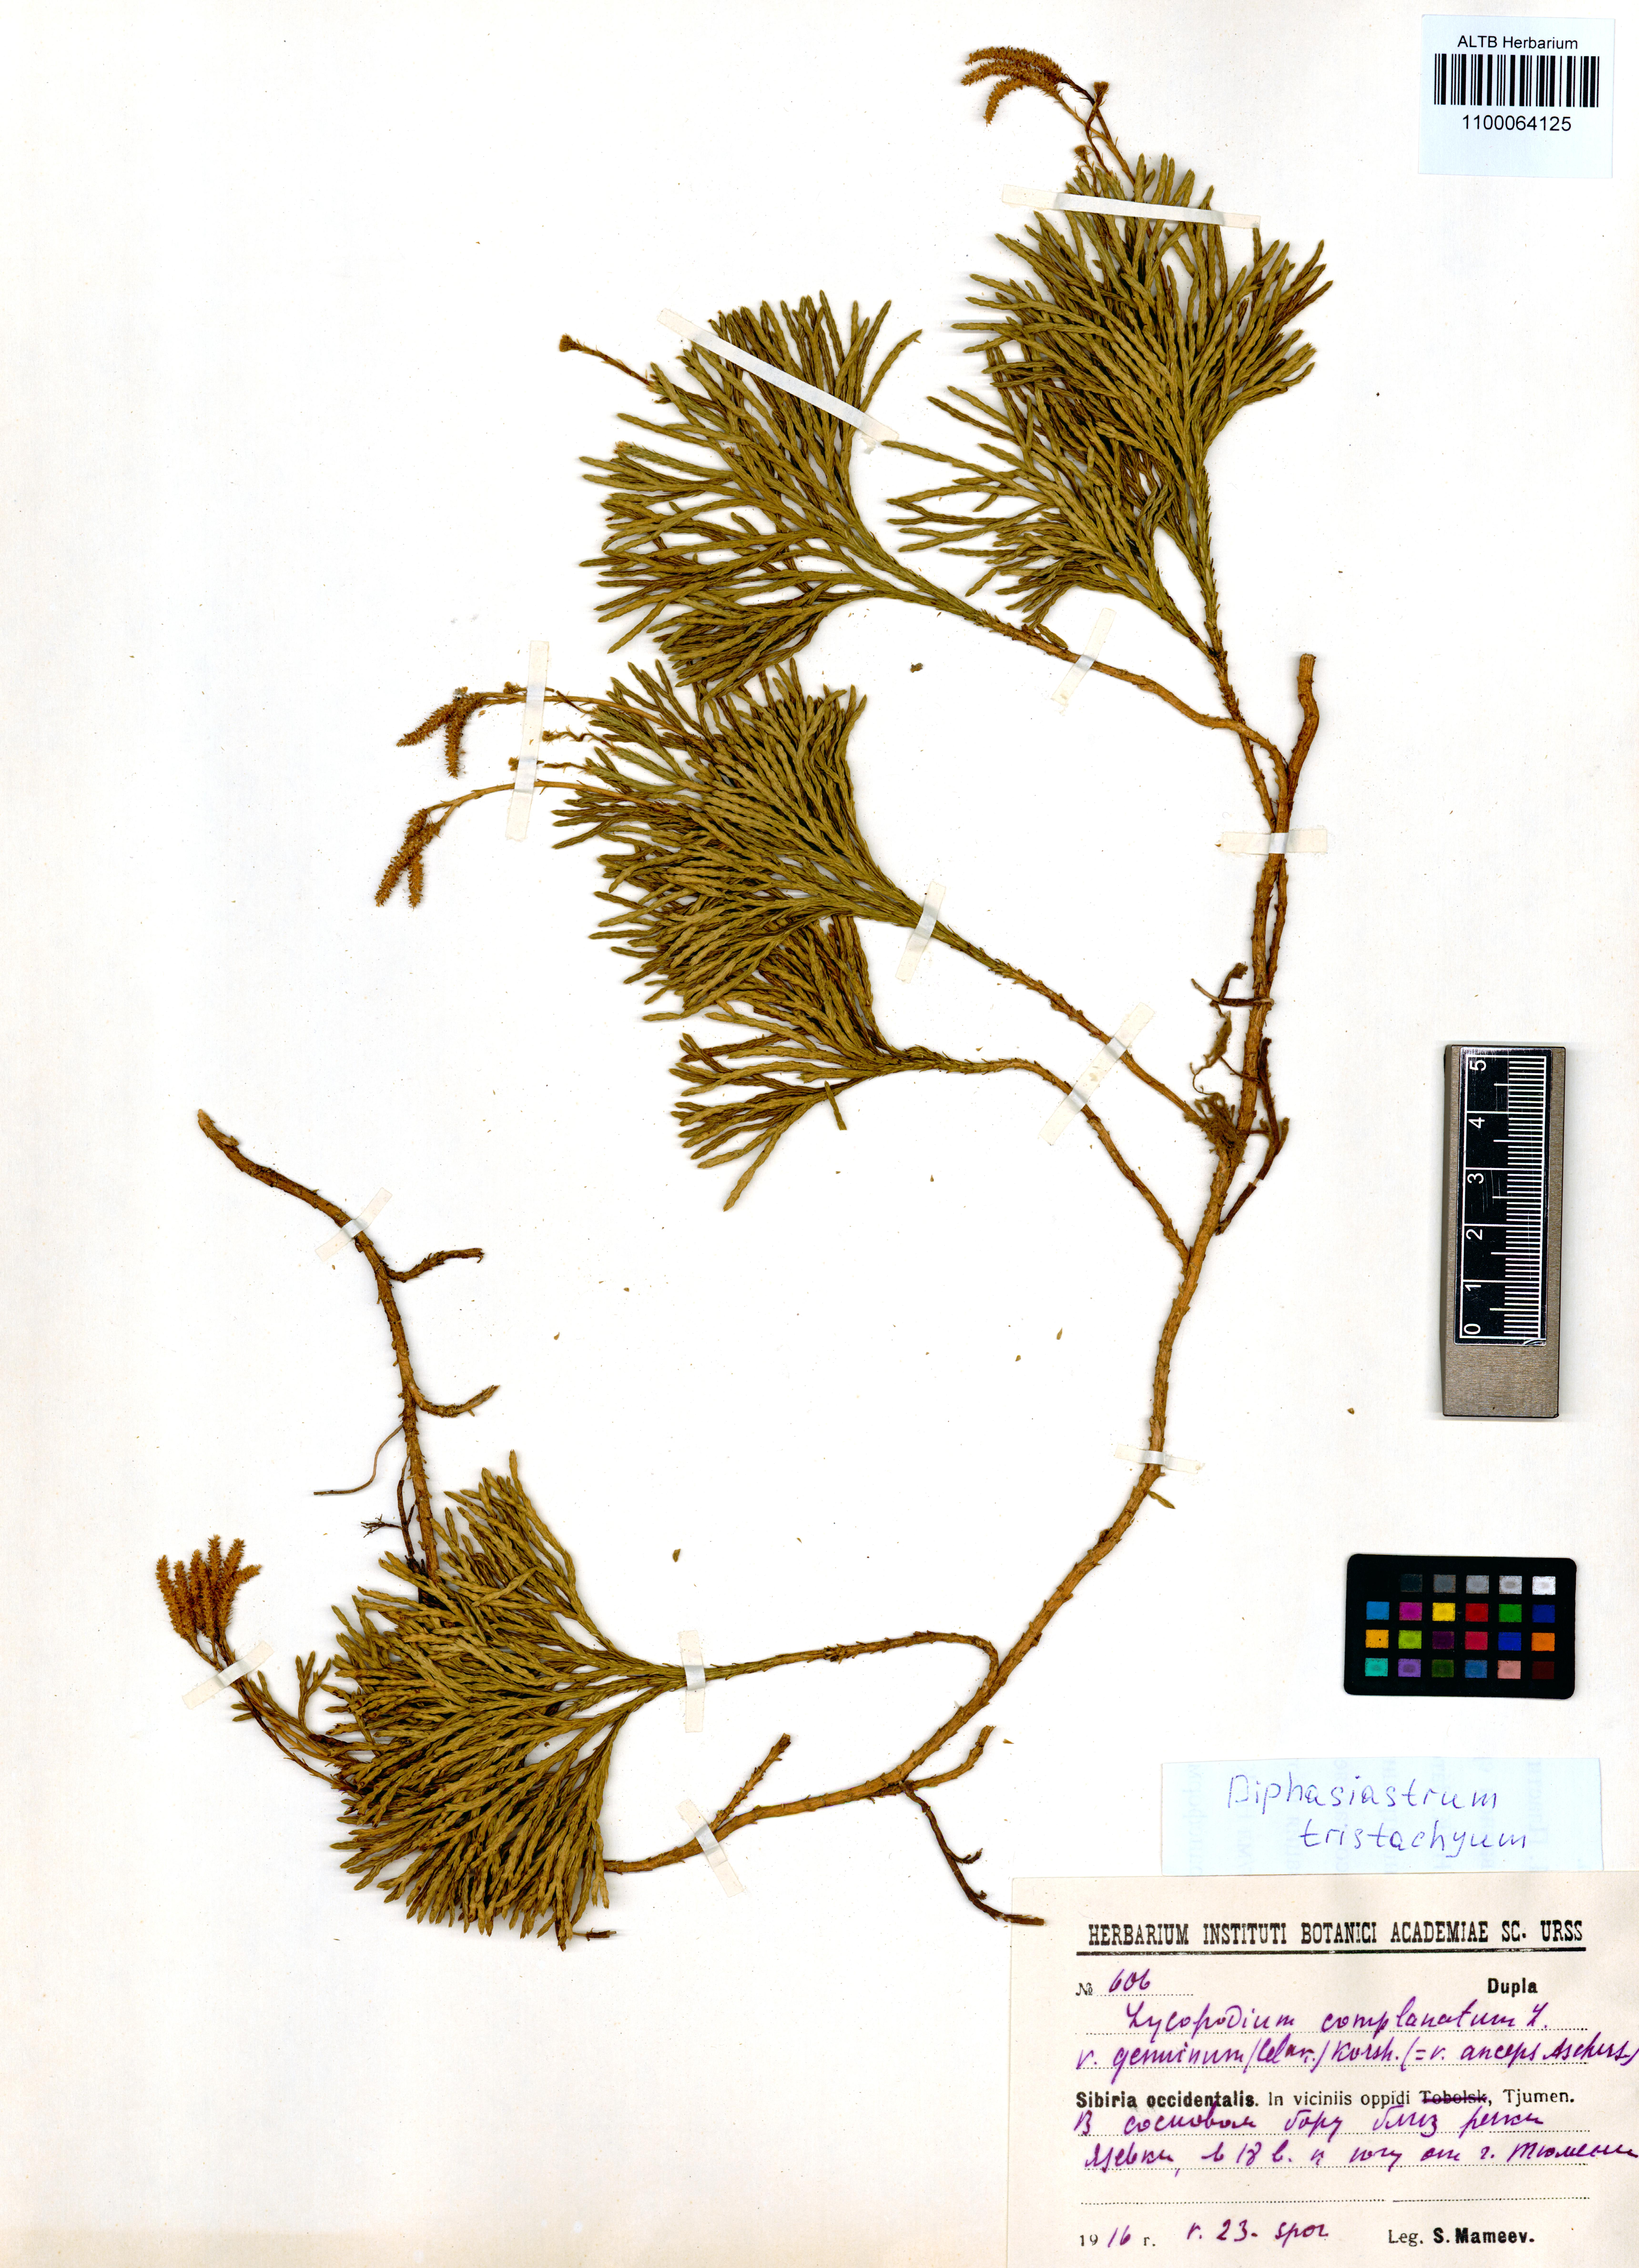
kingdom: Plantae
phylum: Tracheophyta
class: Lycopodiopsida
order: Lycopodiales
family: Lycopodiaceae
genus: Diphasiastrum
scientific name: Diphasiastrum tristachyum
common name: Blue ground-cedar
